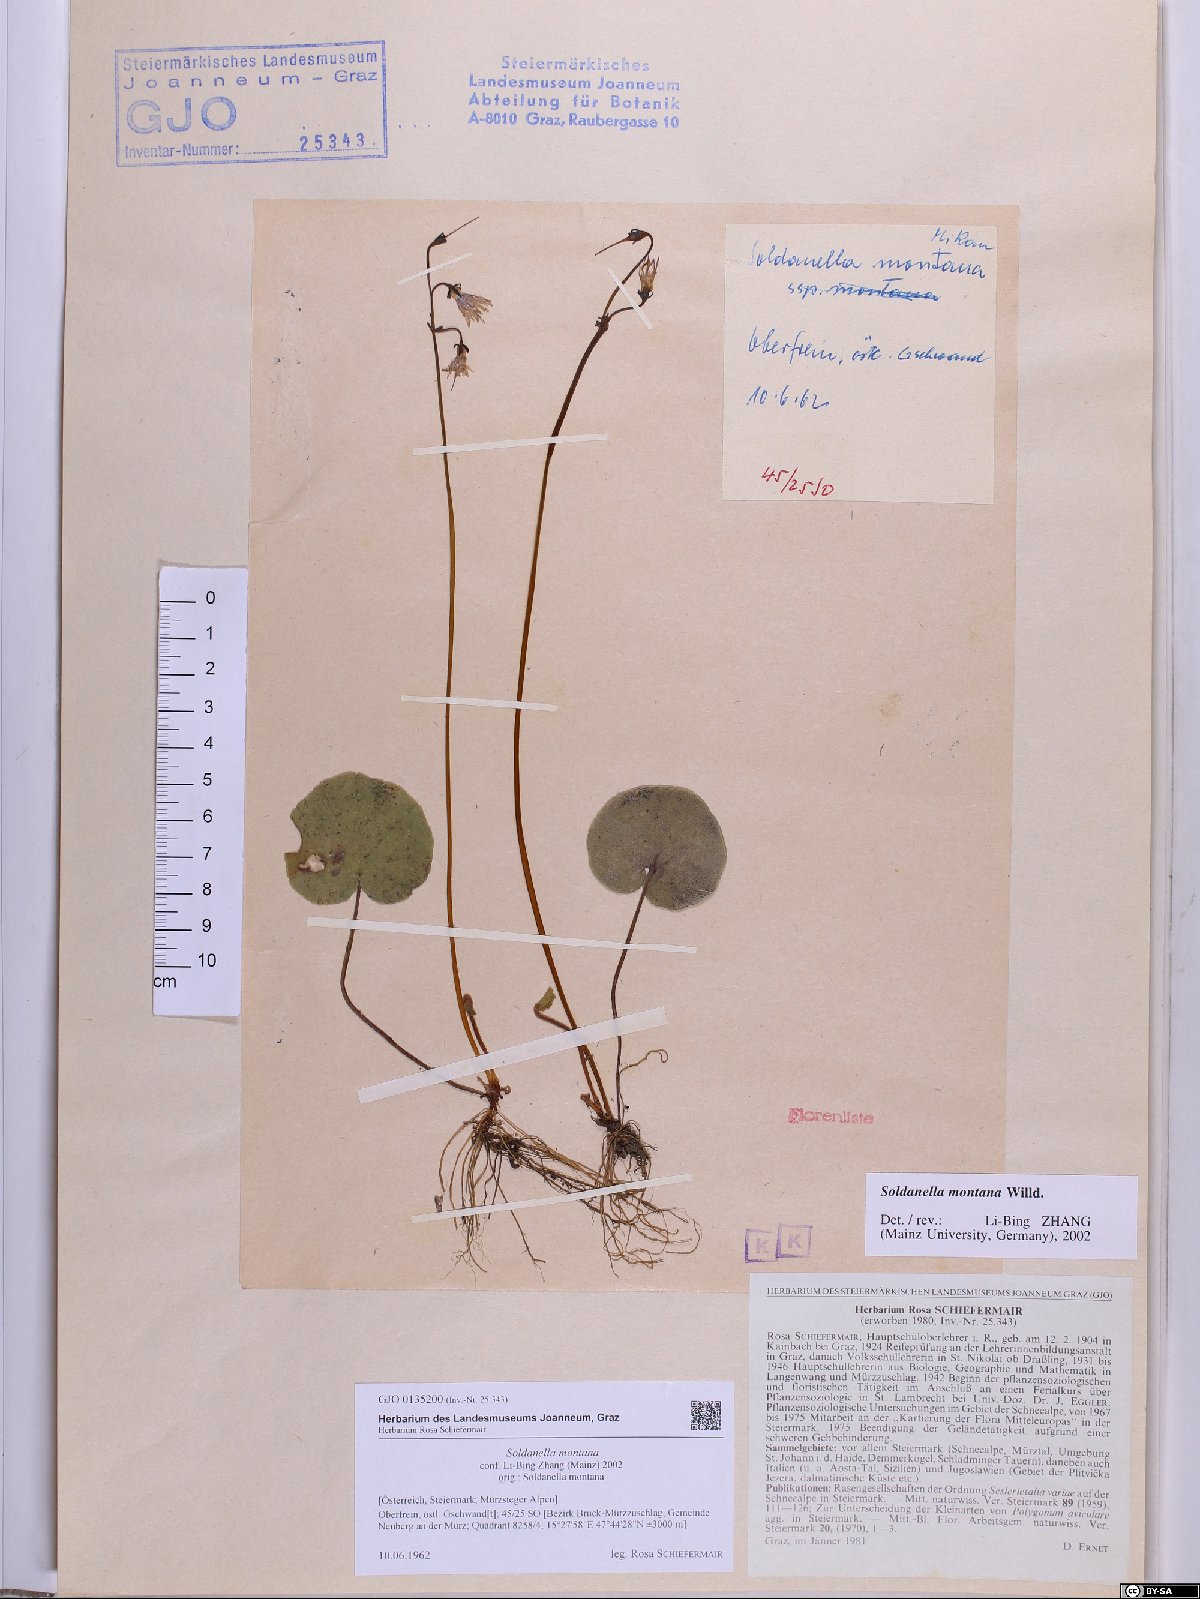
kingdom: Plantae
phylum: Tracheophyta
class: Magnoliopsida
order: Ericales
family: Primulaceae
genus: Soldanella
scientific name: Soldanella montana
